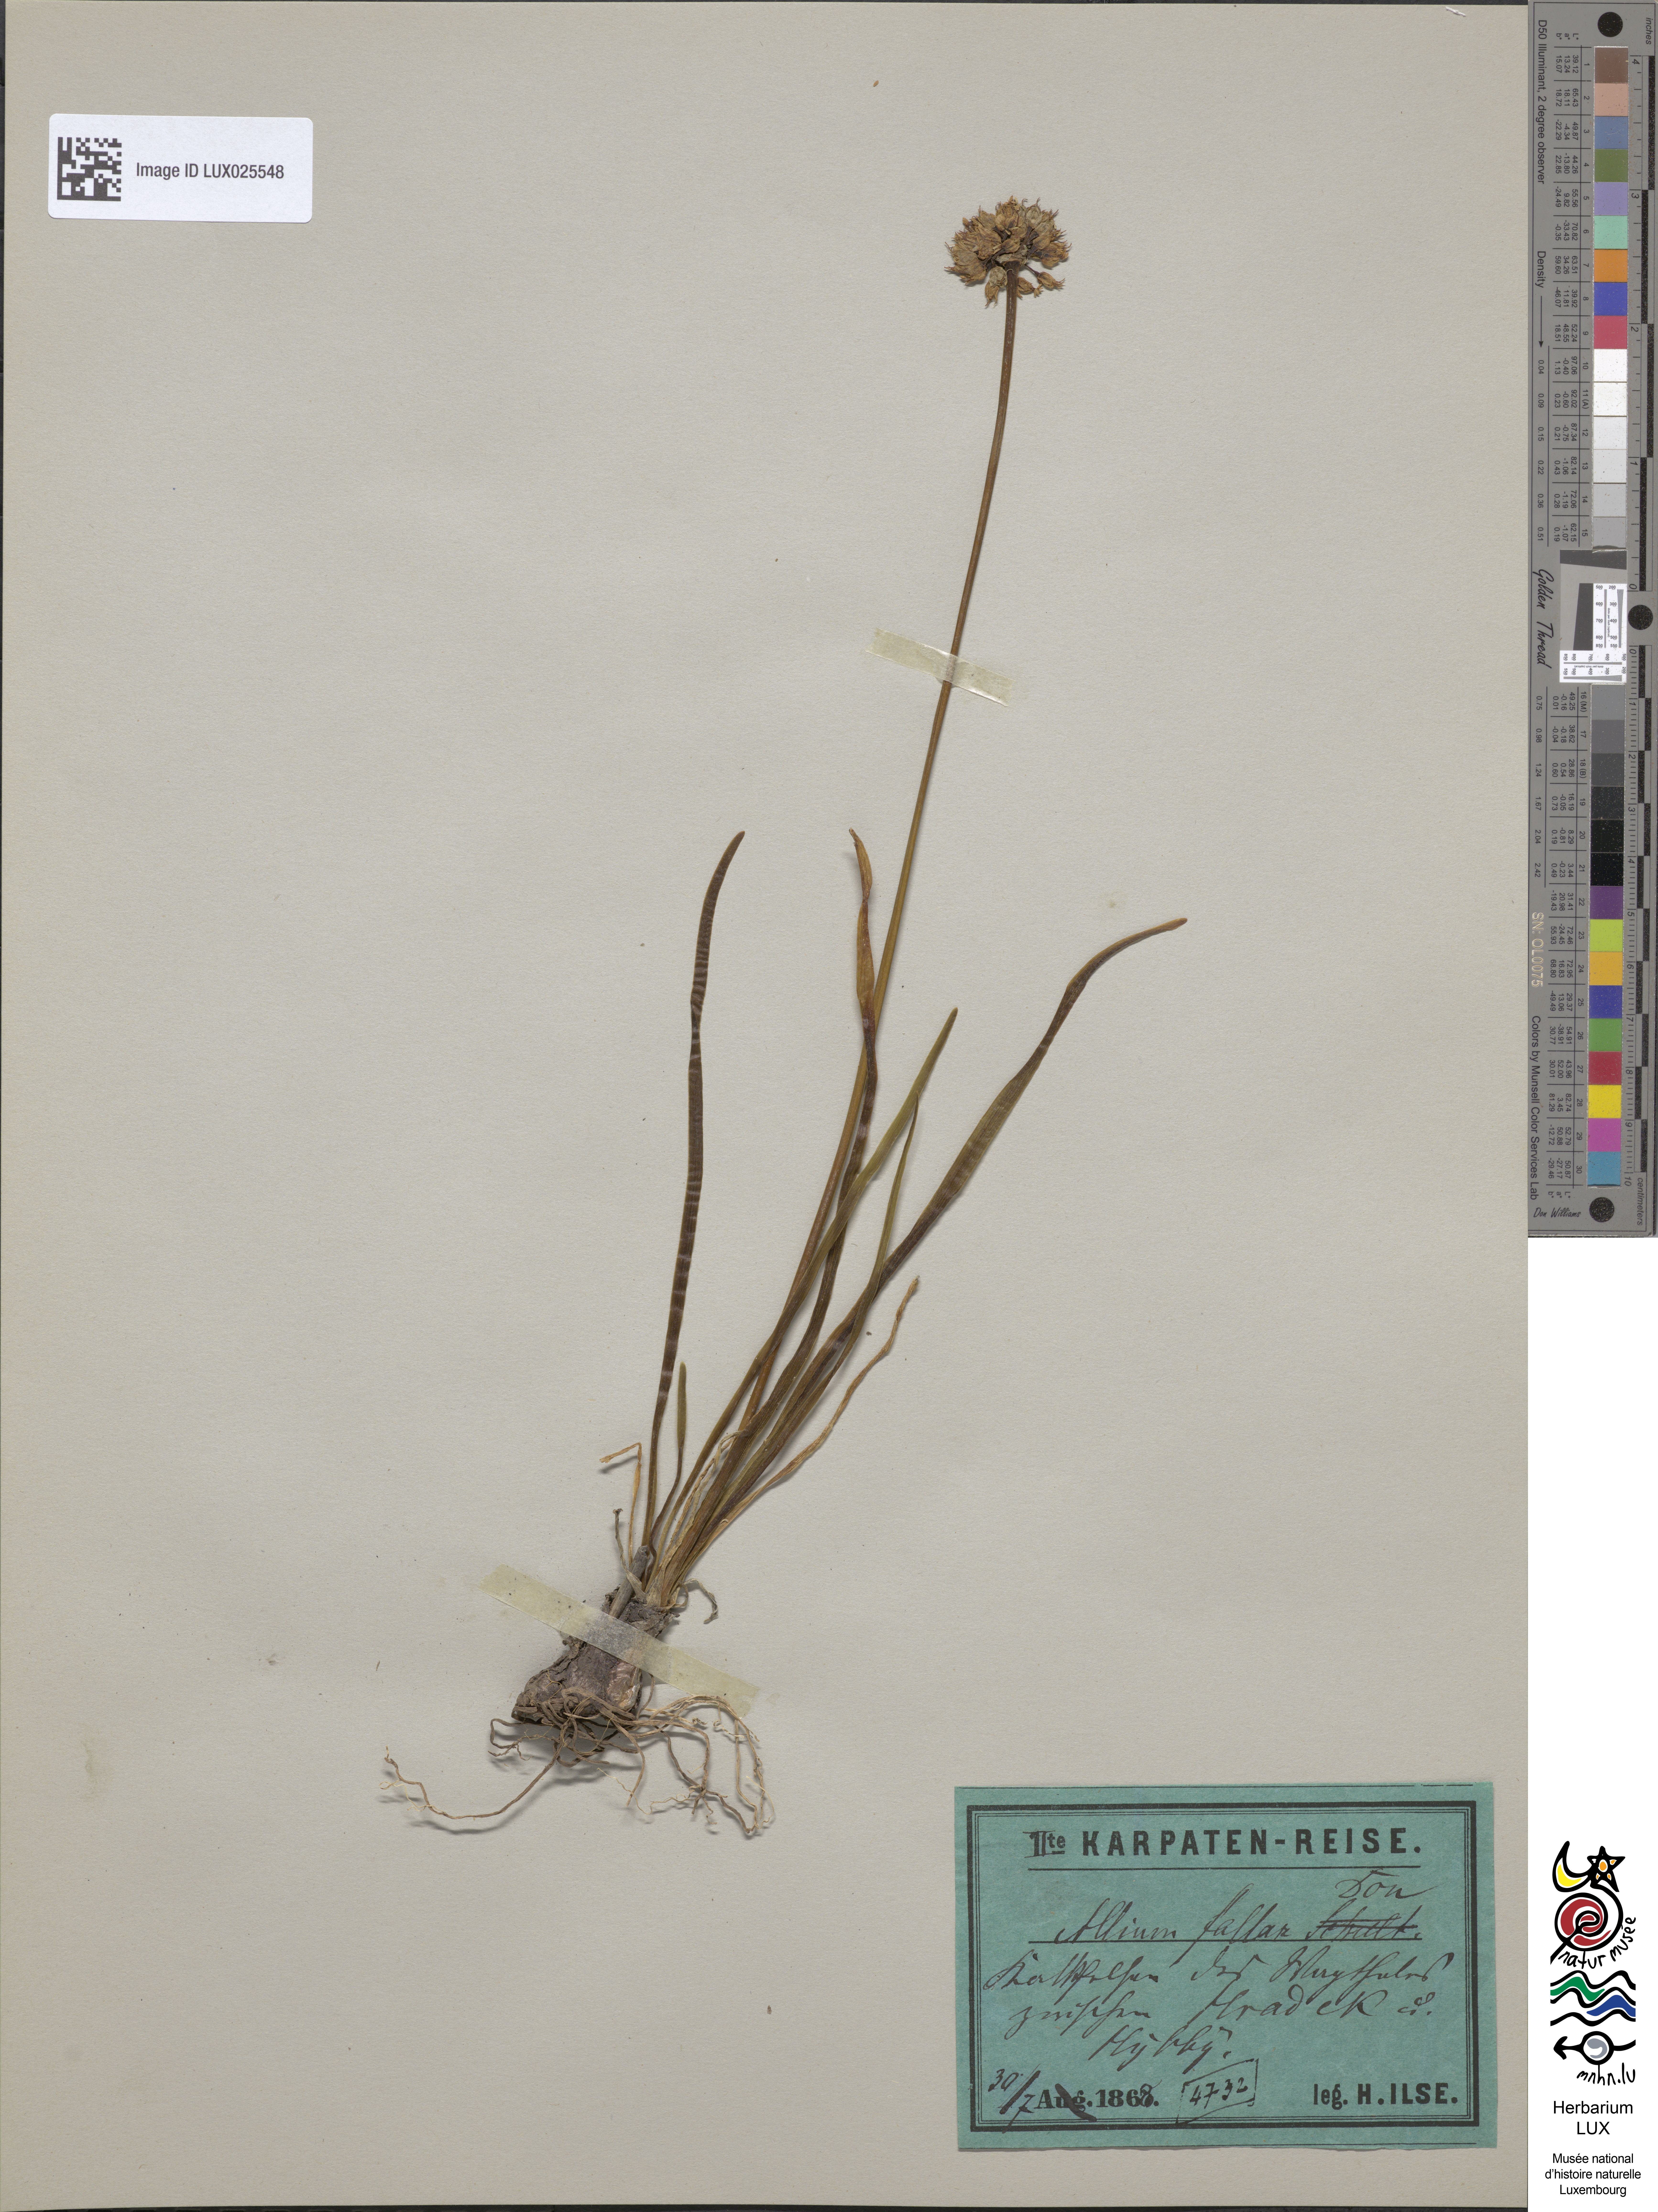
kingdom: Plantae
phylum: Tracheophyta
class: Liliopsida
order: Asparagales
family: Amaryllidaceae
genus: Allium
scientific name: Allium lusitanicum
